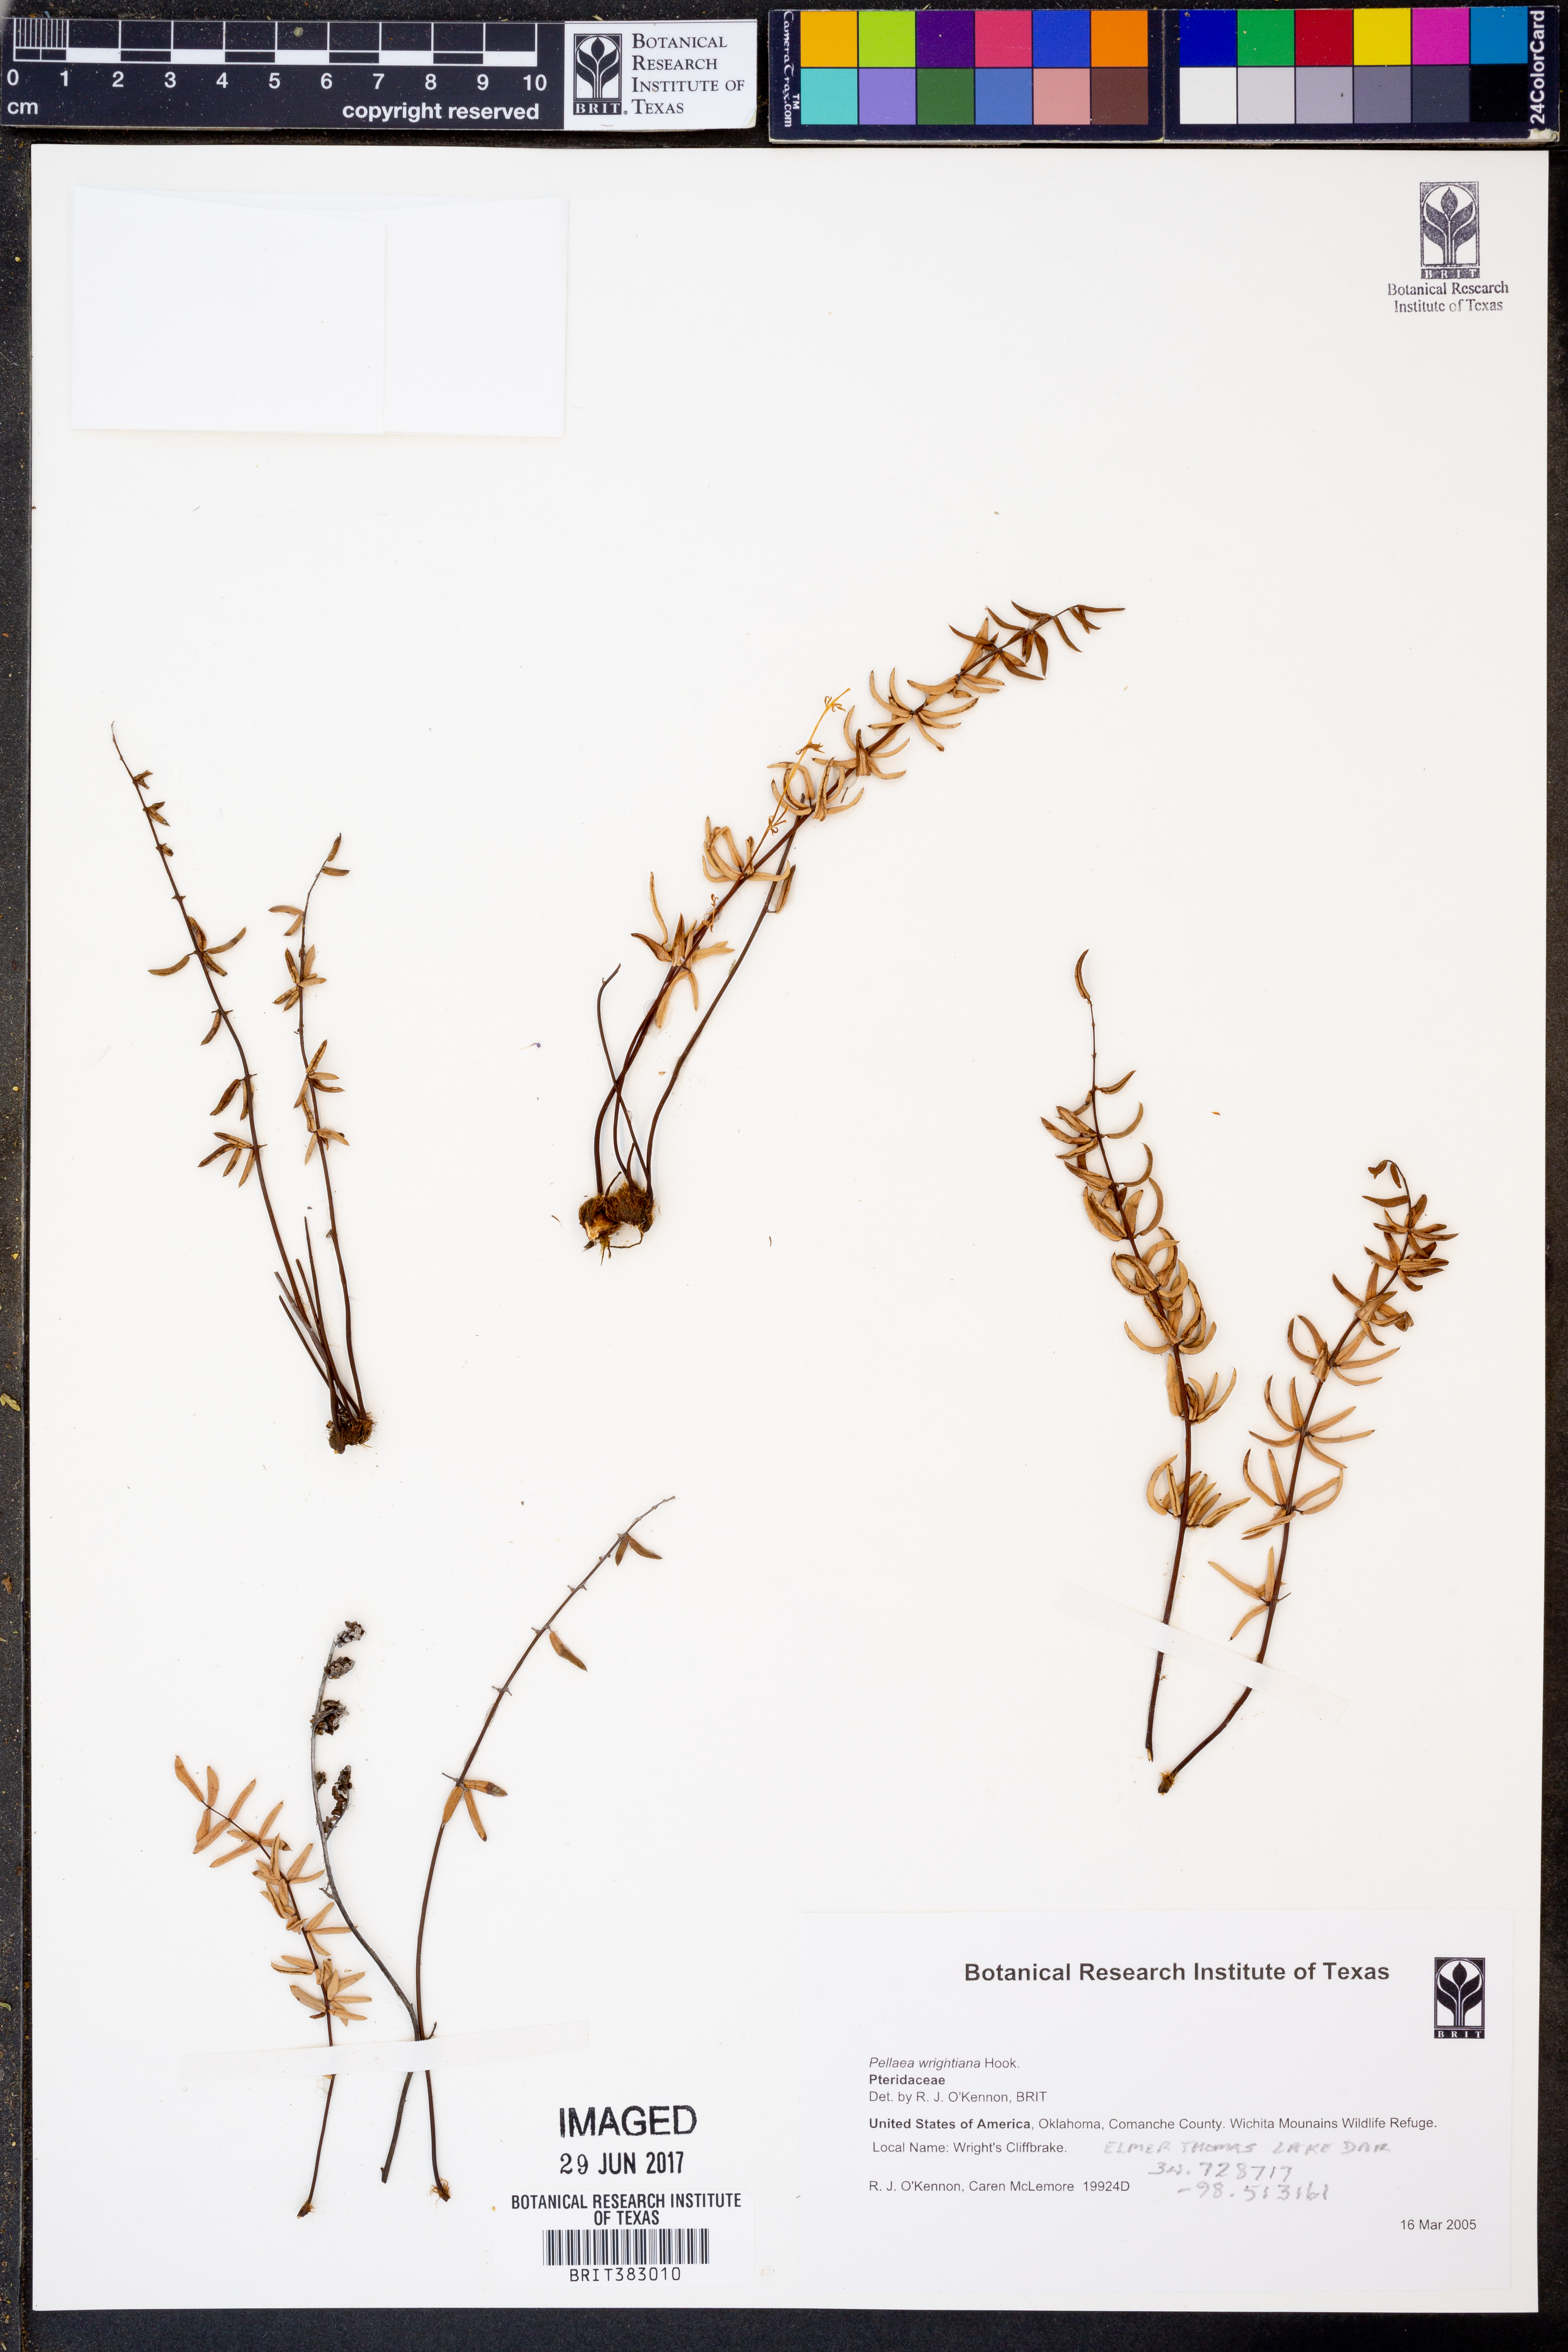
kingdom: Plantae
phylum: Tracheophyta
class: Polypodiopsida
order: Polypodiales
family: Pteridaceae
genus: Pellaea
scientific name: Pellaea wrightiana
